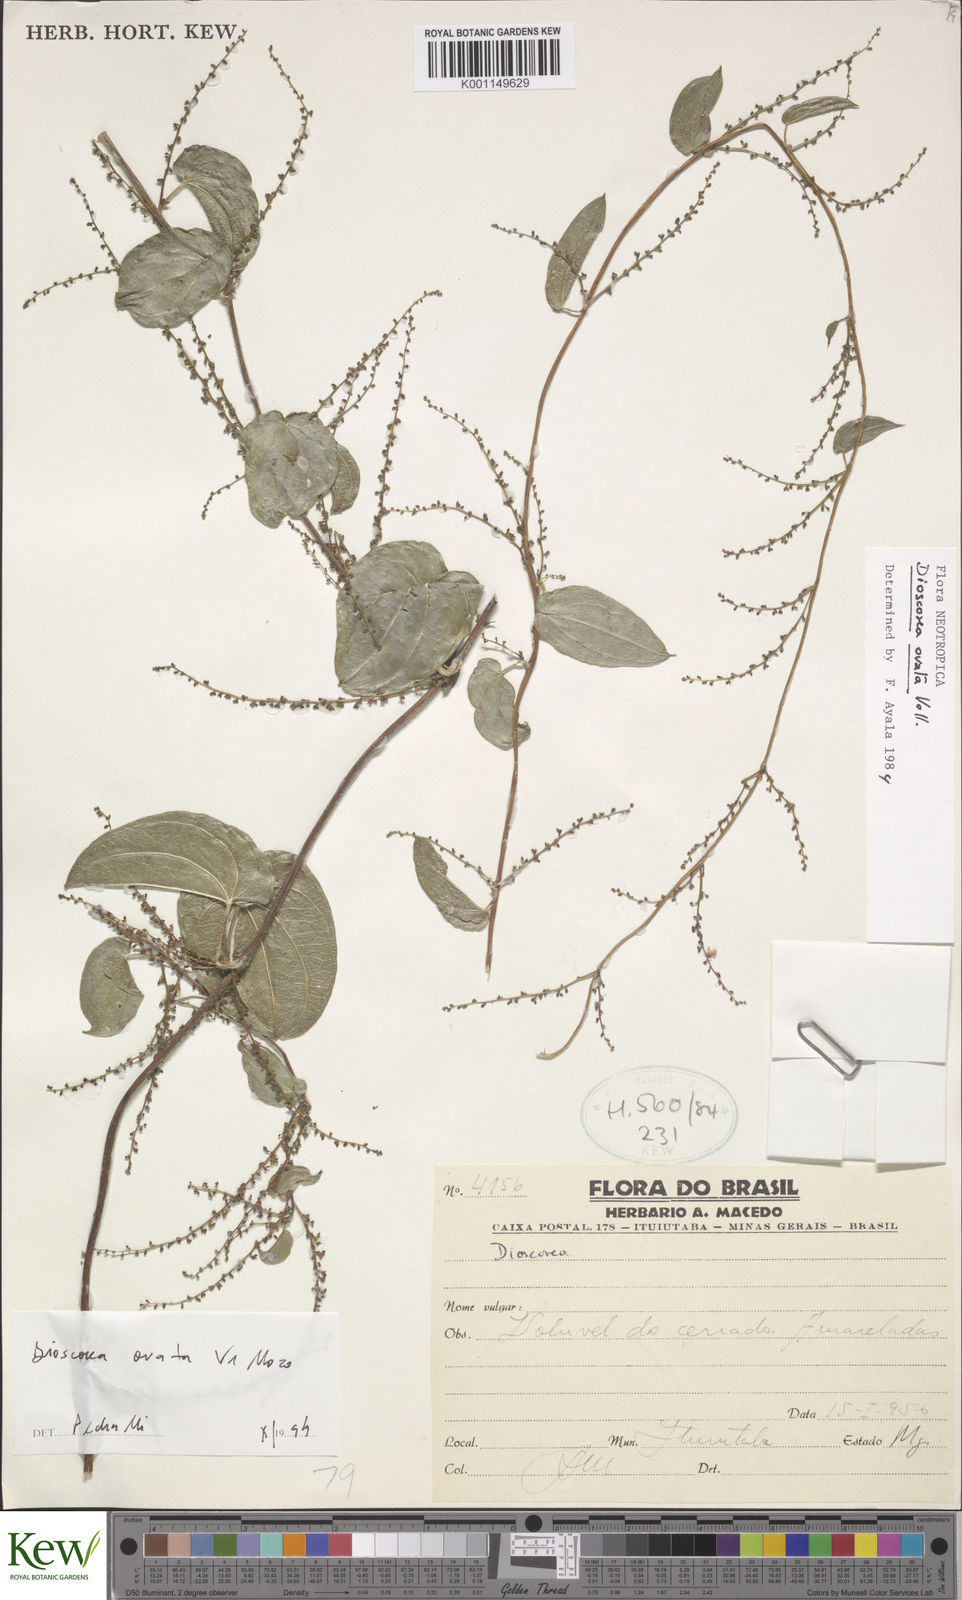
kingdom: Plantae
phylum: Tracheophyta
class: Liliopsida
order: Dioscoreales
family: Dioscoreaceae
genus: Dioscorea
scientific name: Dioscorea ovata
